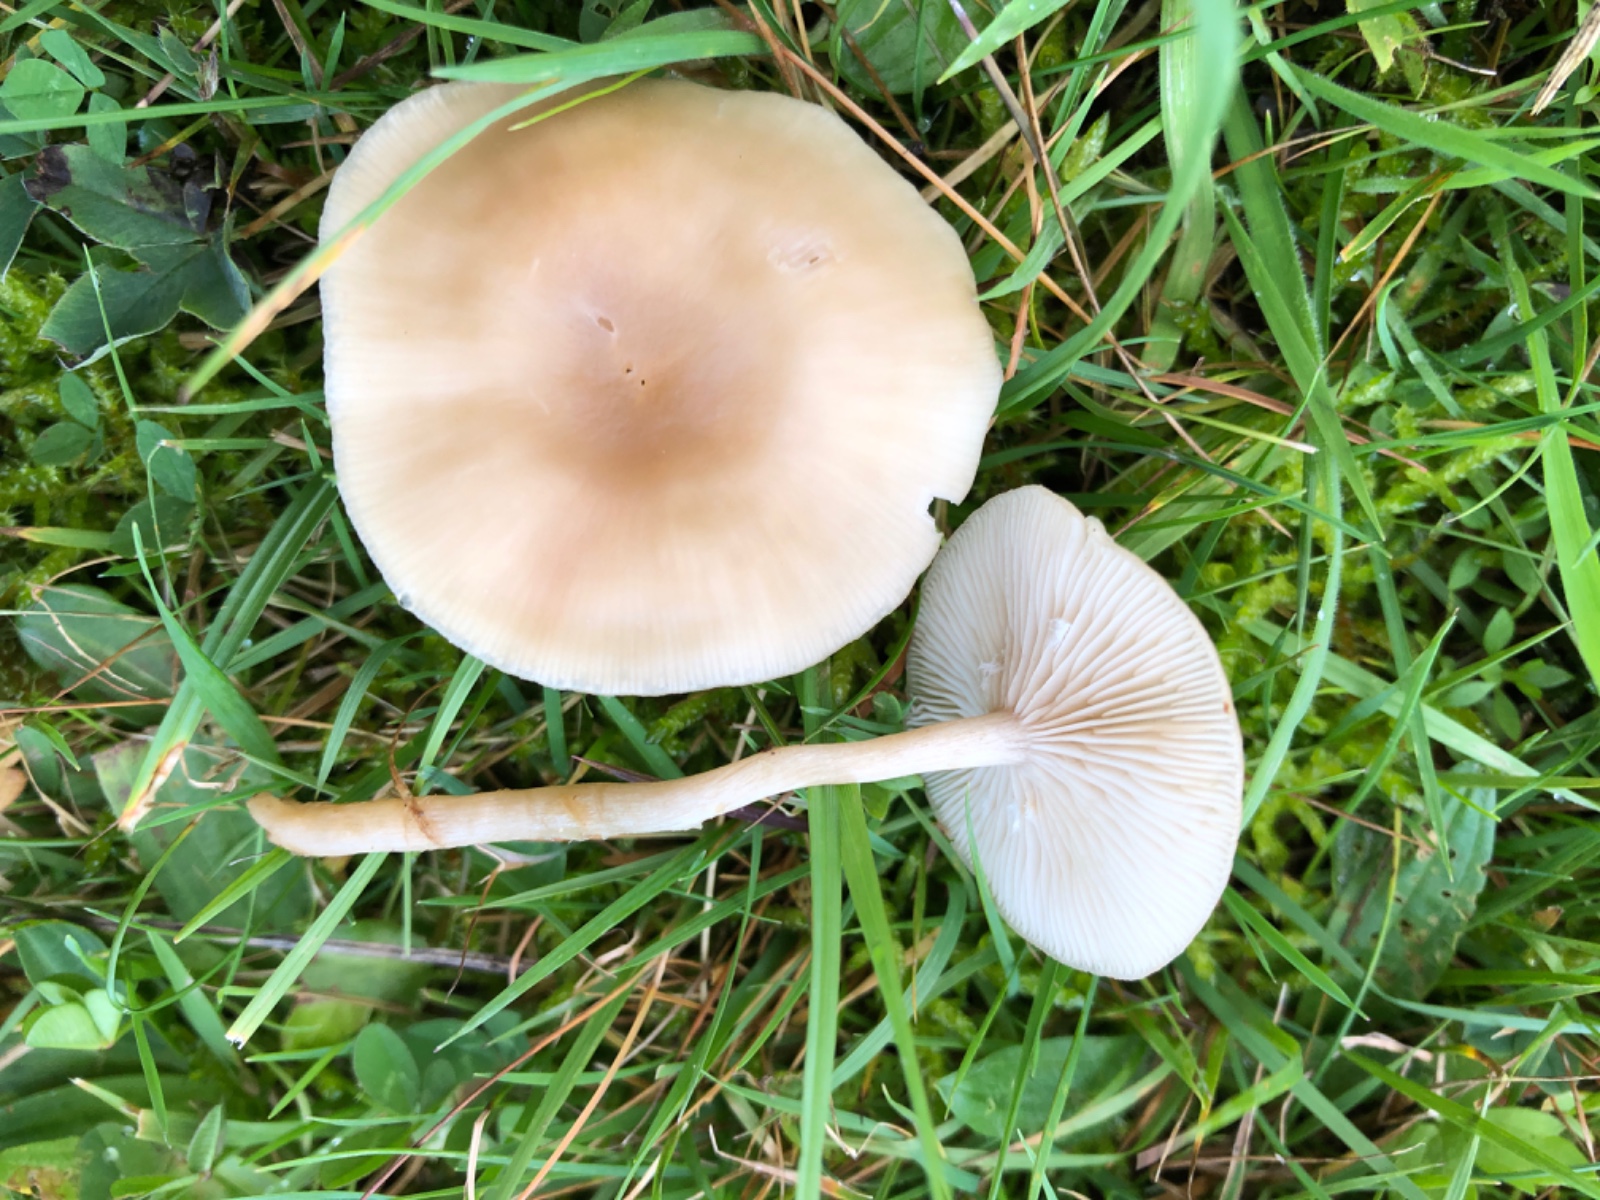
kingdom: Fungi
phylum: Basidiomycota
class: Agaricomycetes
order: Agaricales
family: Tricholomataceae
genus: Clitocybe
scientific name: Clitocybe fragrans
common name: vellugtende tragthat
